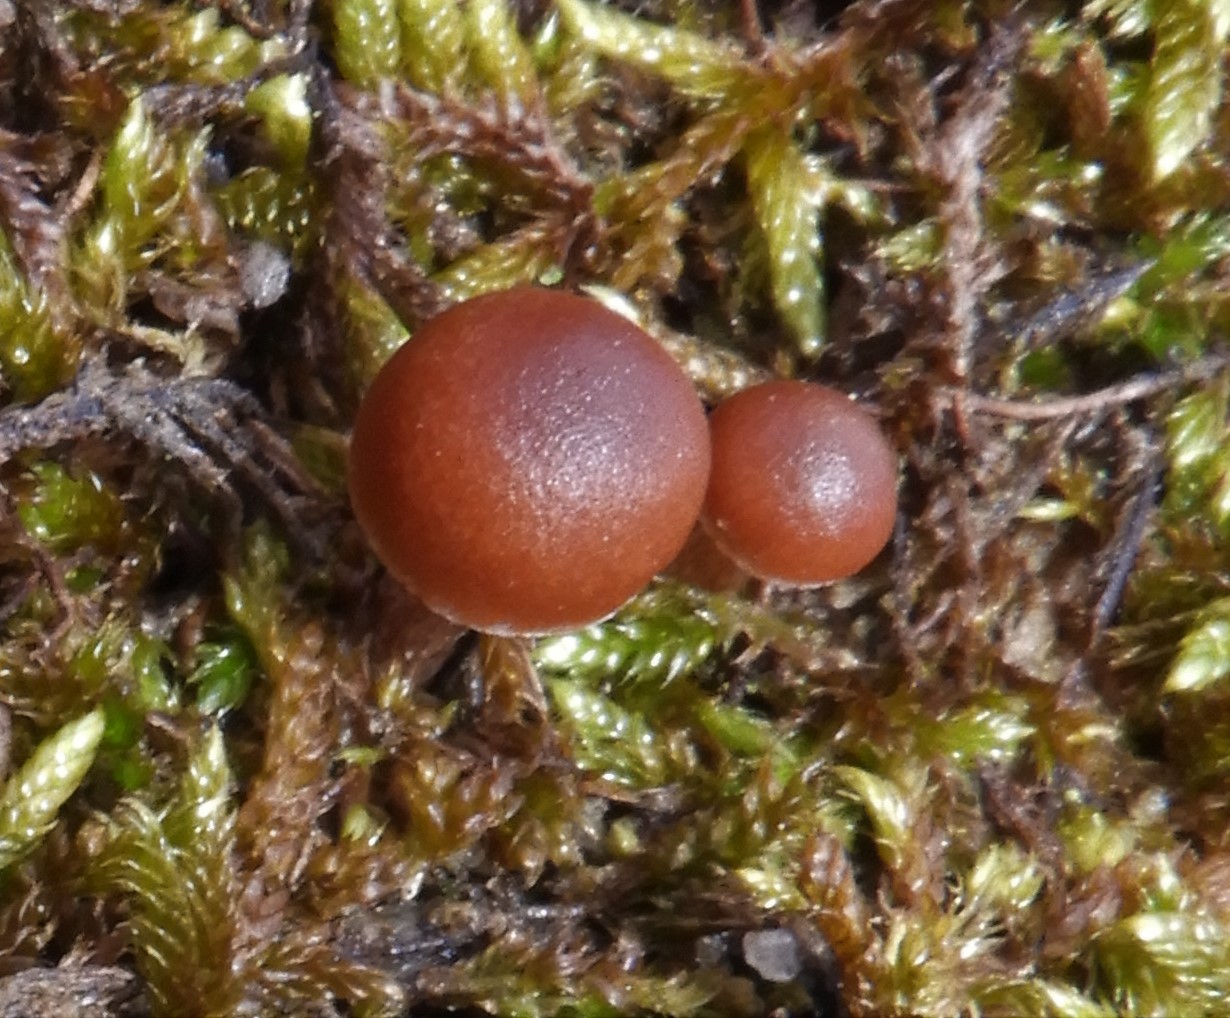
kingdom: Fungi
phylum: Basidiomycota
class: Agaricomycetes
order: Agaricales
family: Strophariaceae
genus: Deconica
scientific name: Deconica montana
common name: rødbrun stråhat
